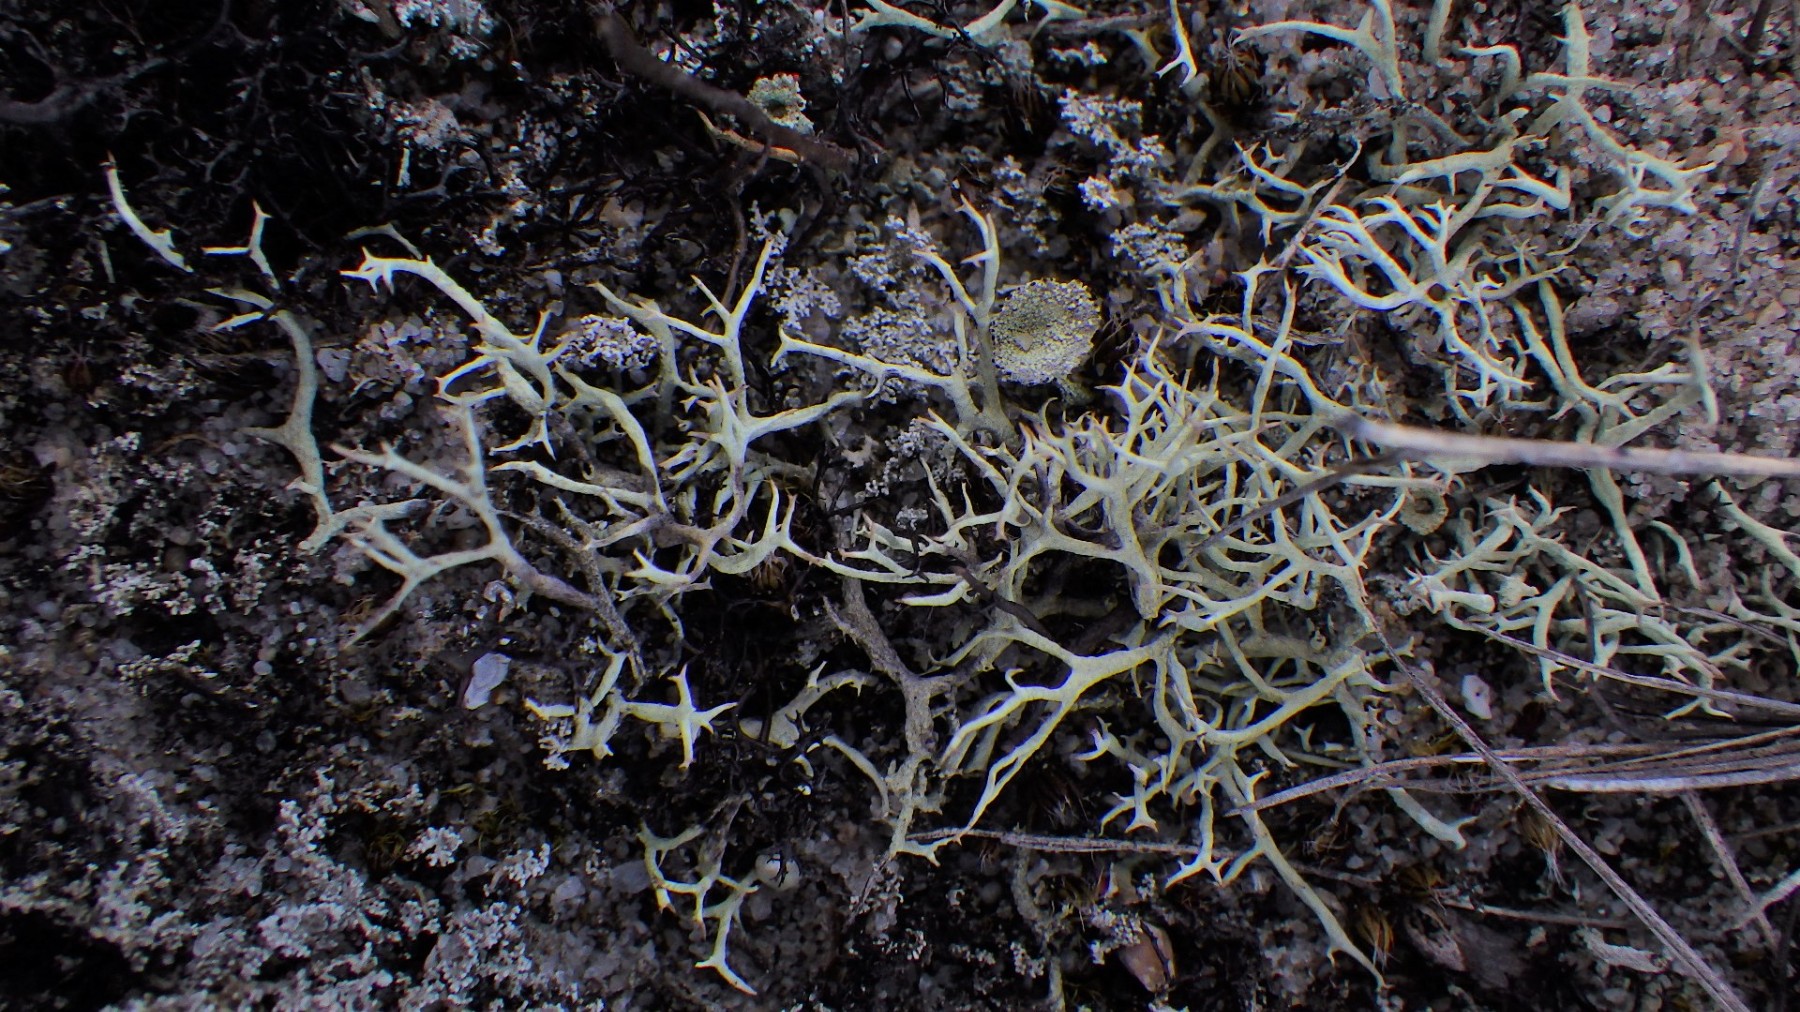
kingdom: Fungi
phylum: Ascomycota
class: Lecanoromycetes
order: Lecanorales
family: Cladoniaceae
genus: Cladonia
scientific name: Cladonia zopfii
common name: klit-bægerlav
